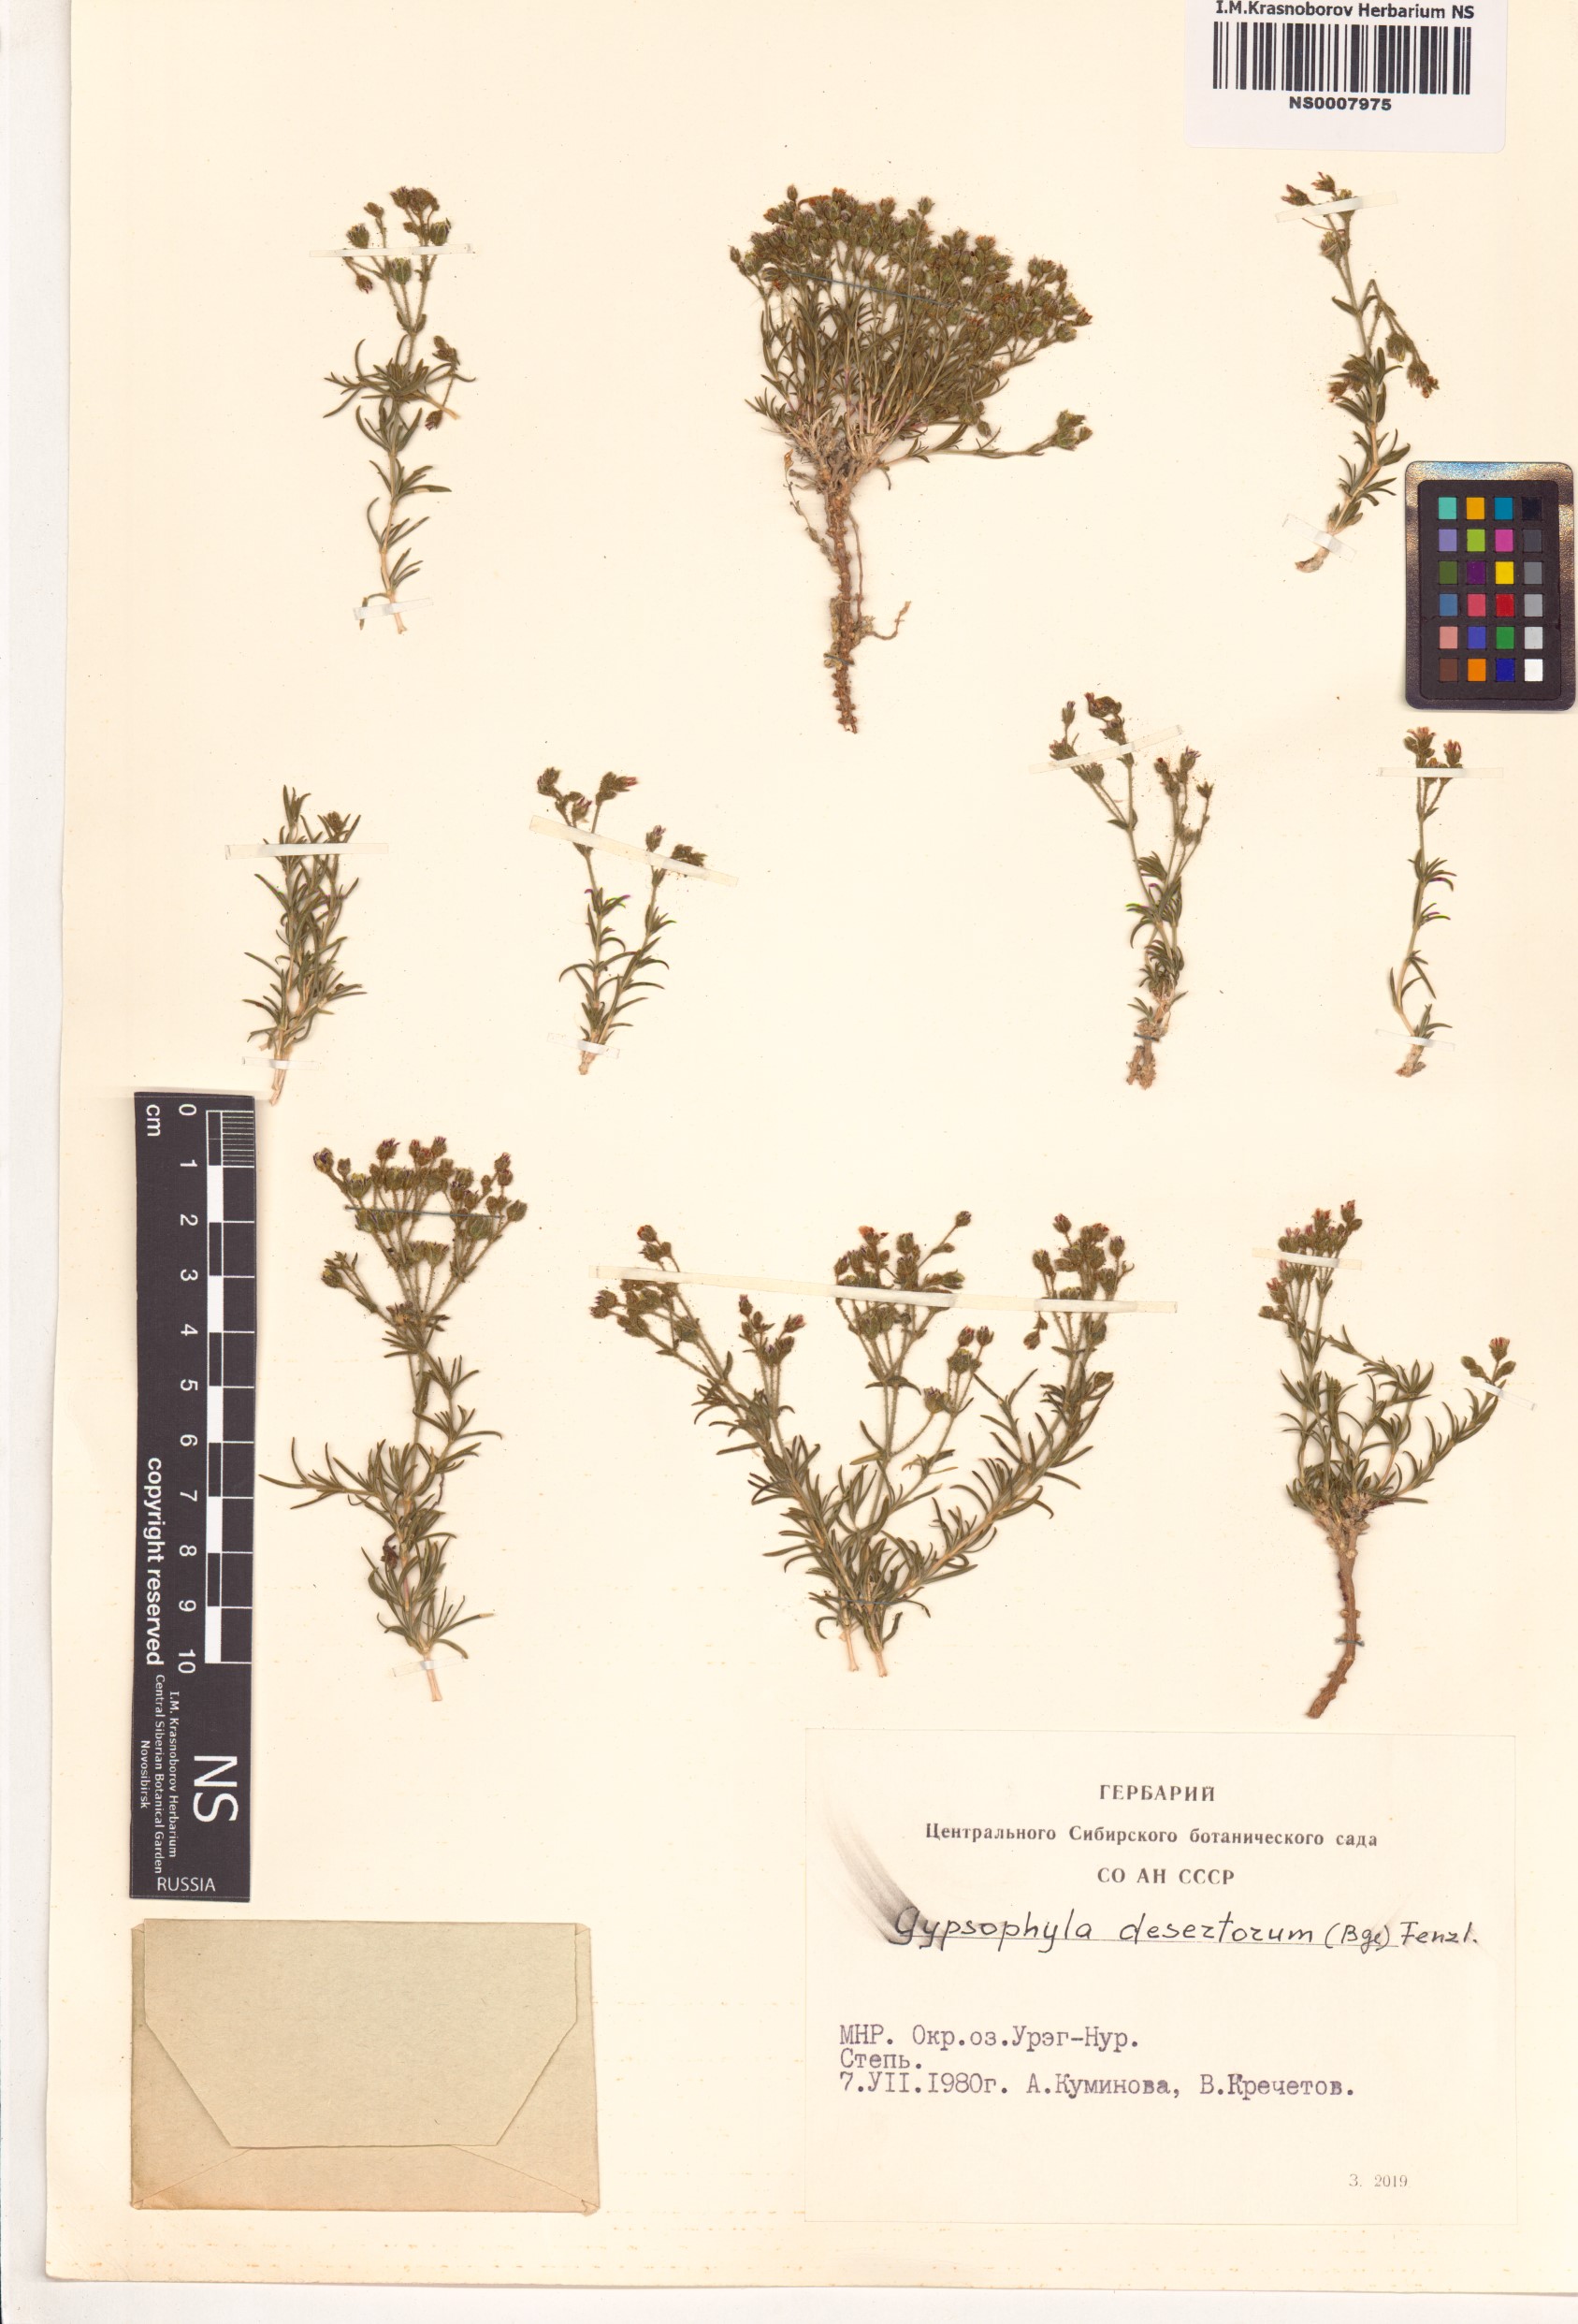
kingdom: Plantae
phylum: Tracheophyta
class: Magnoliopsida
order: Caryophyllales
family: Caryophyllaceae
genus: Heterochroa
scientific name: Heterochroa desertorum
